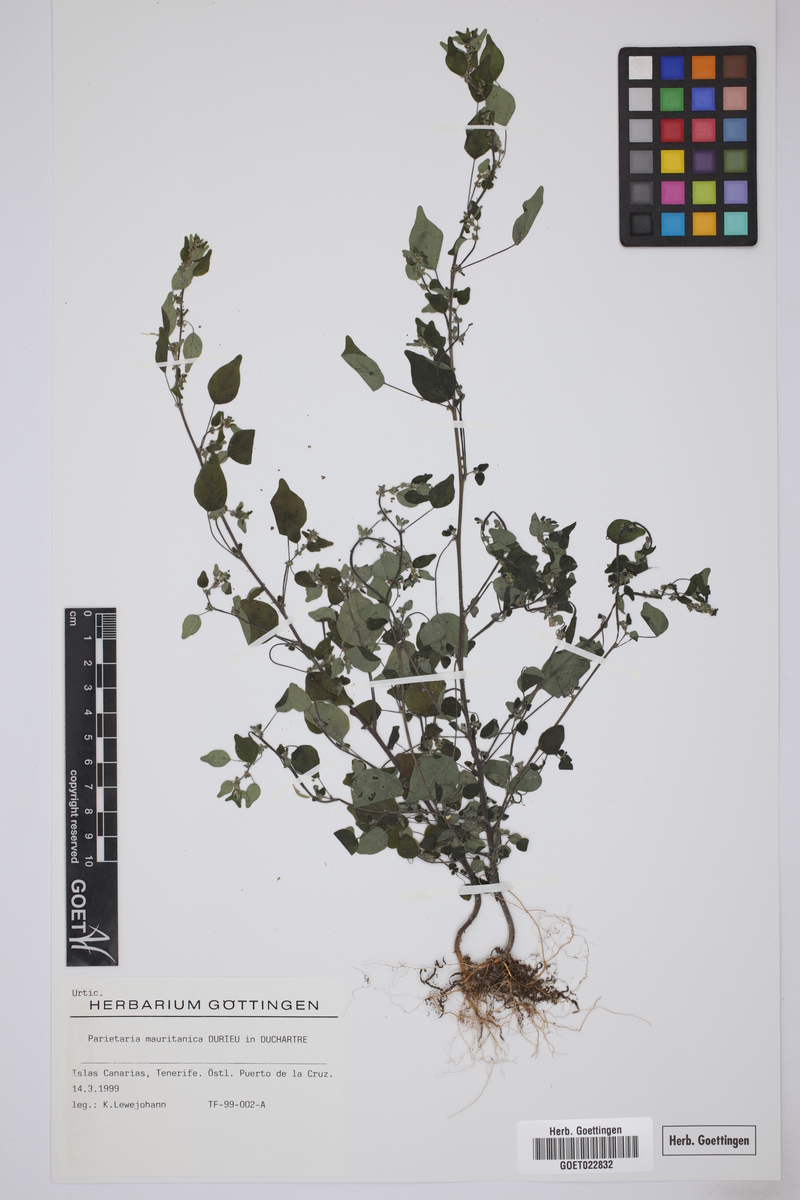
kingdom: Plantae
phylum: Tracheophyta
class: Magnoliopsida
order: Rosales
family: Urticaceae
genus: Parietaria
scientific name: Parietaria mauritanica
